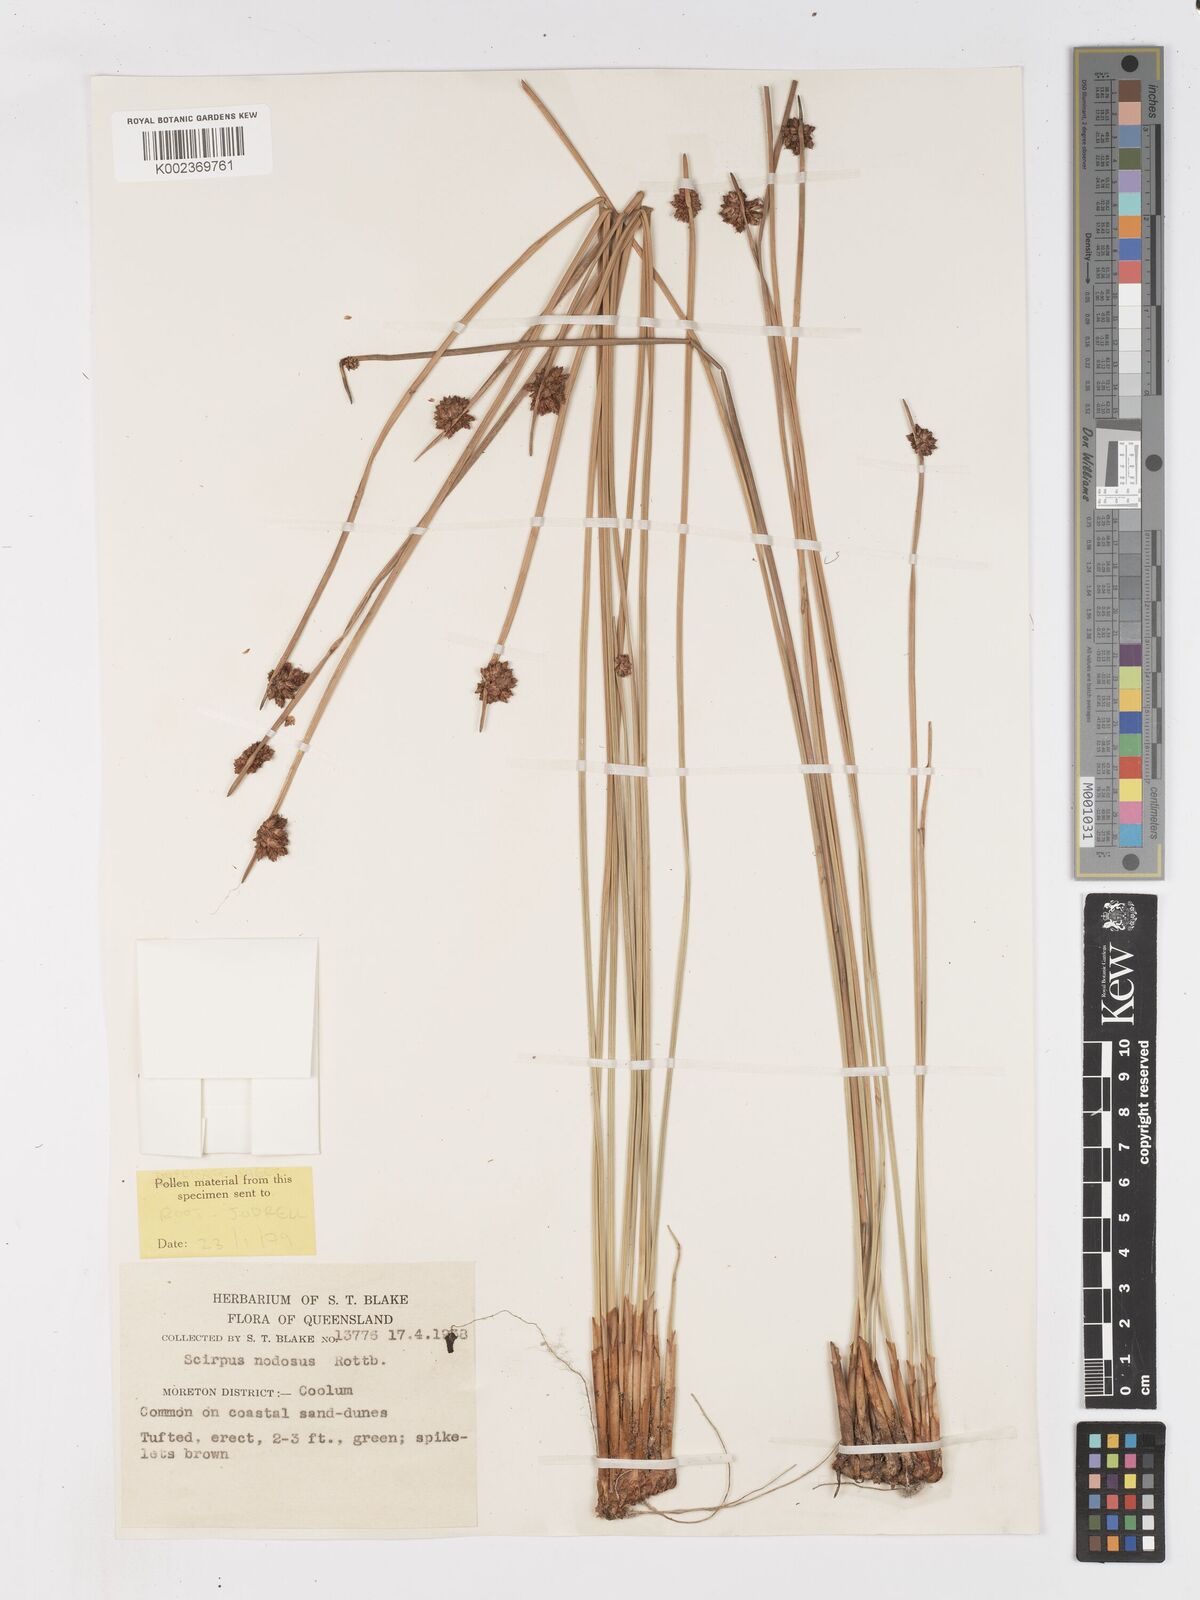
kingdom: Plantae
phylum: Tracheophyta
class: Liliopsida
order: Poales
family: Cyperaceae
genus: Ficinia
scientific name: Ficinia nodosa
